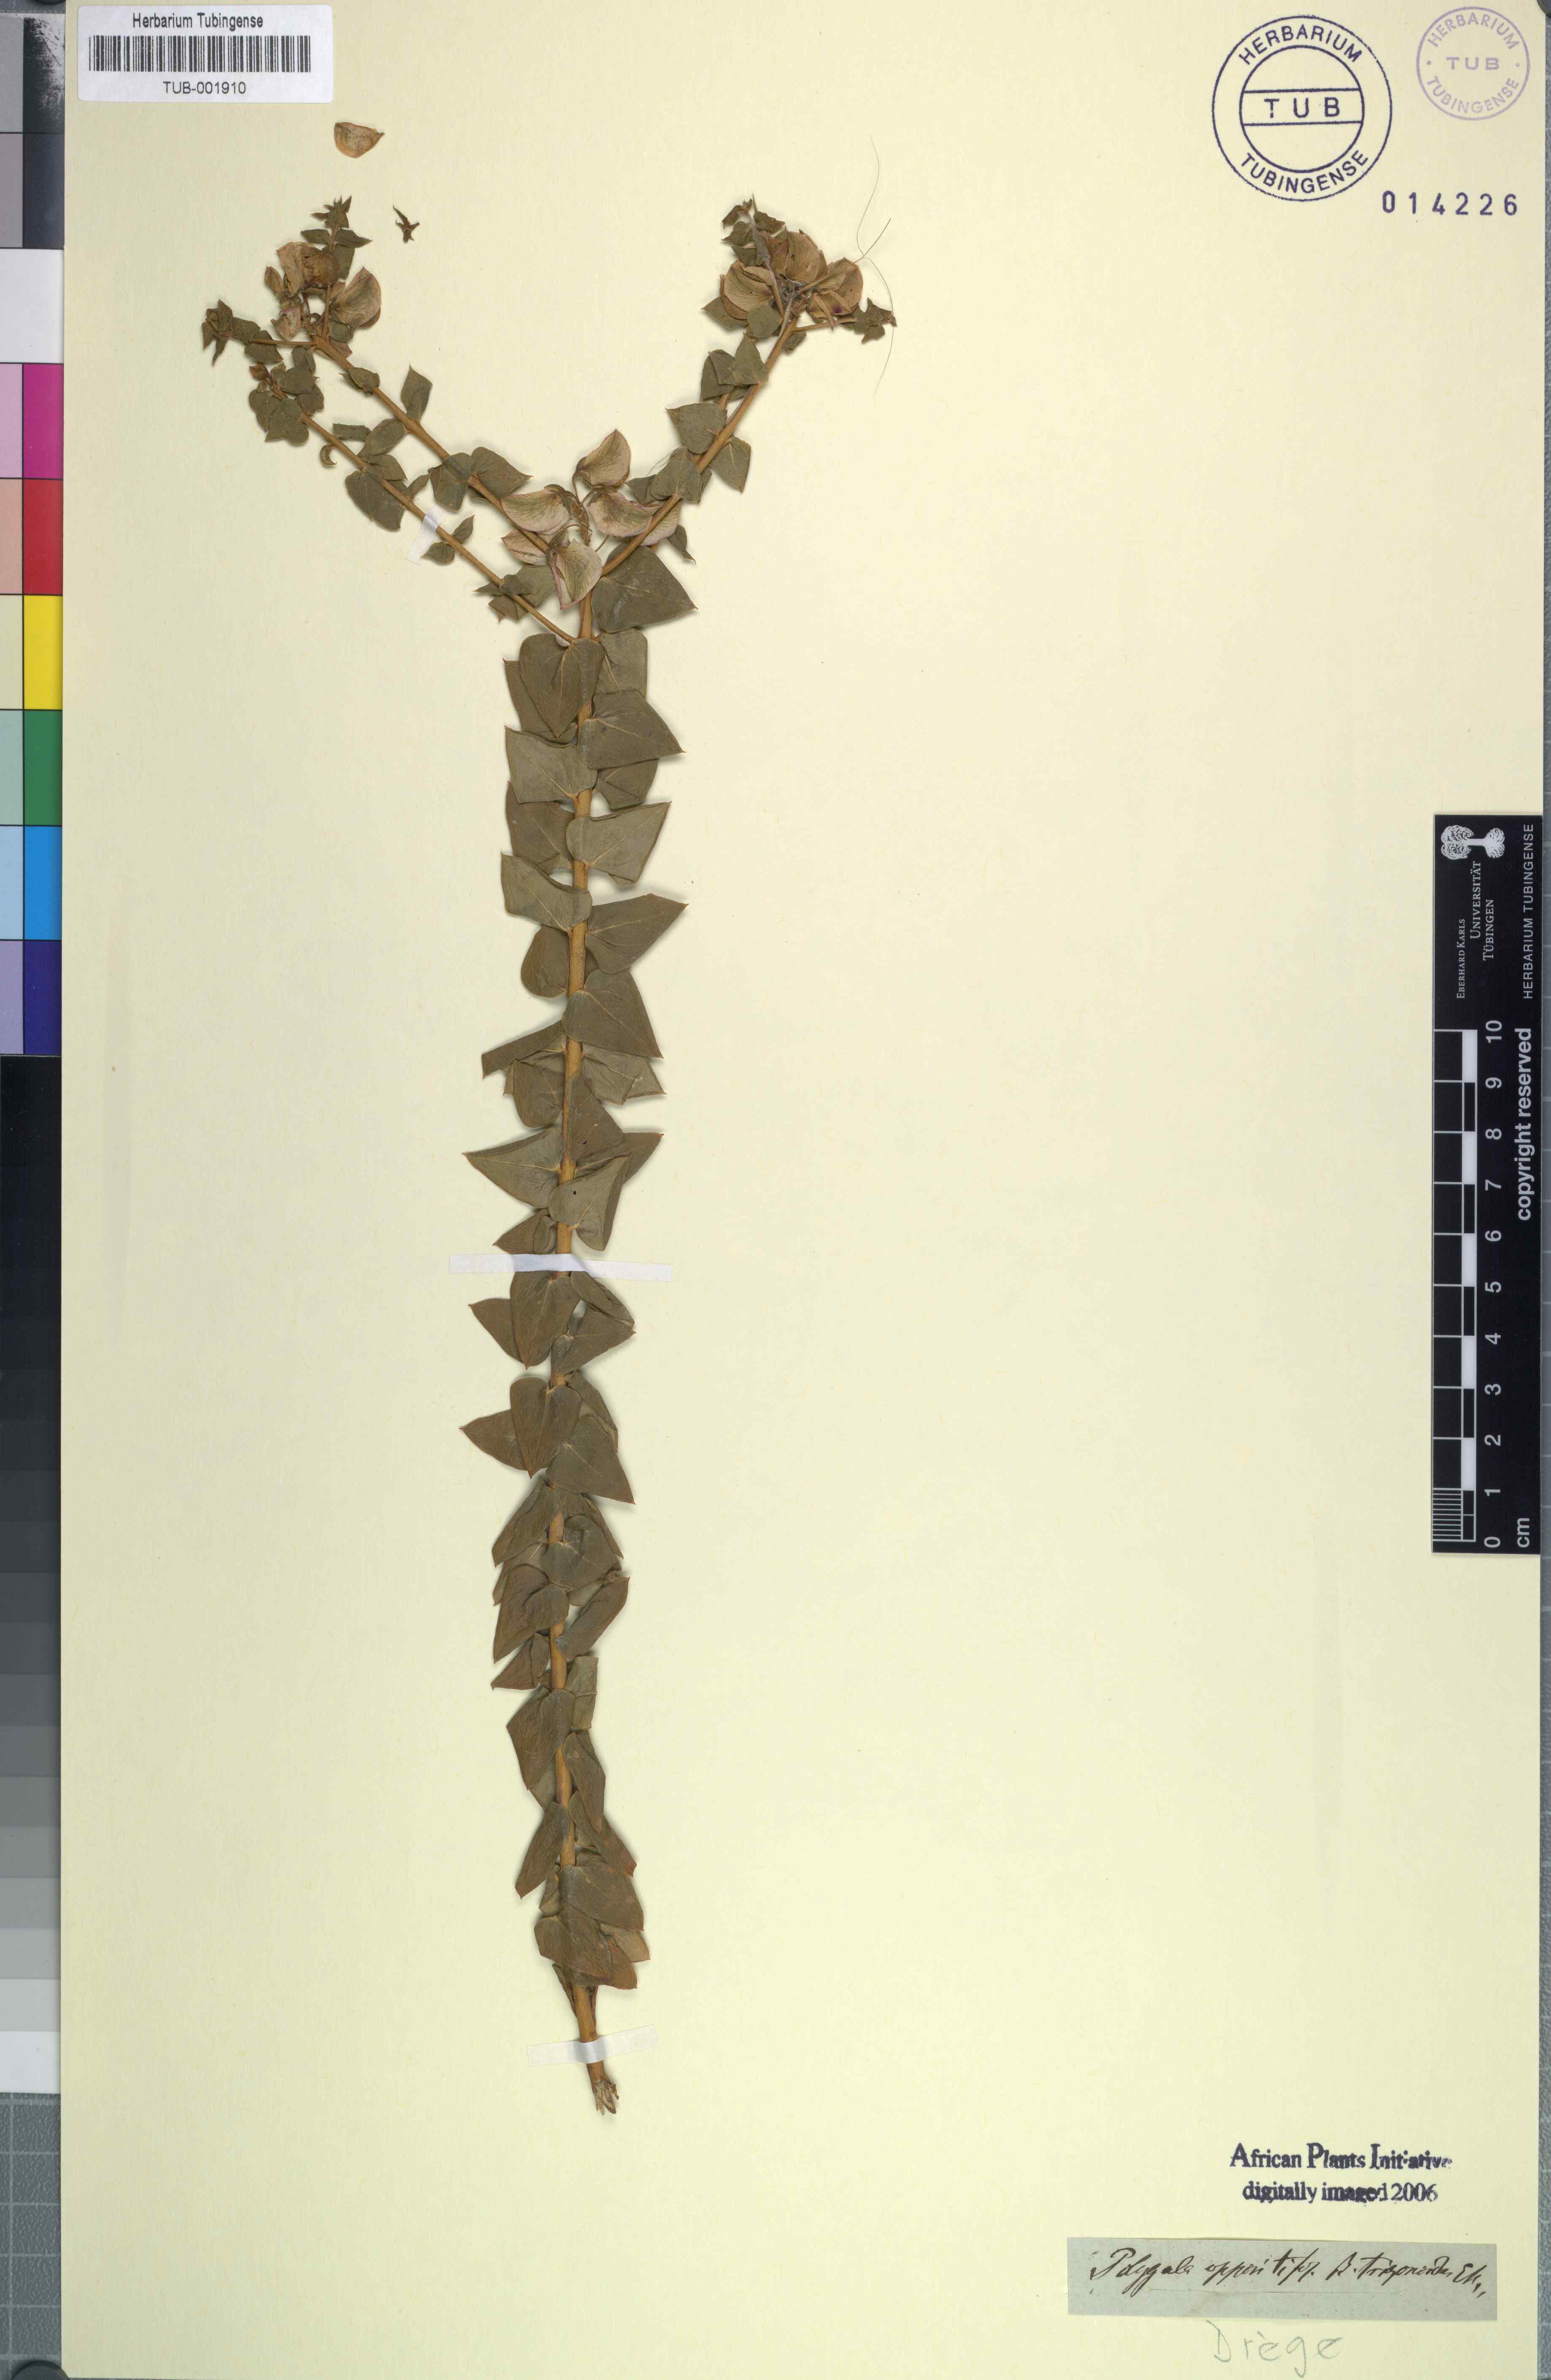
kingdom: Plantae
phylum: Tracheophyta
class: Magnoliopsida
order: Fabales
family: Polygalaceae
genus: Polygala
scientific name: Polygala fruticosa
